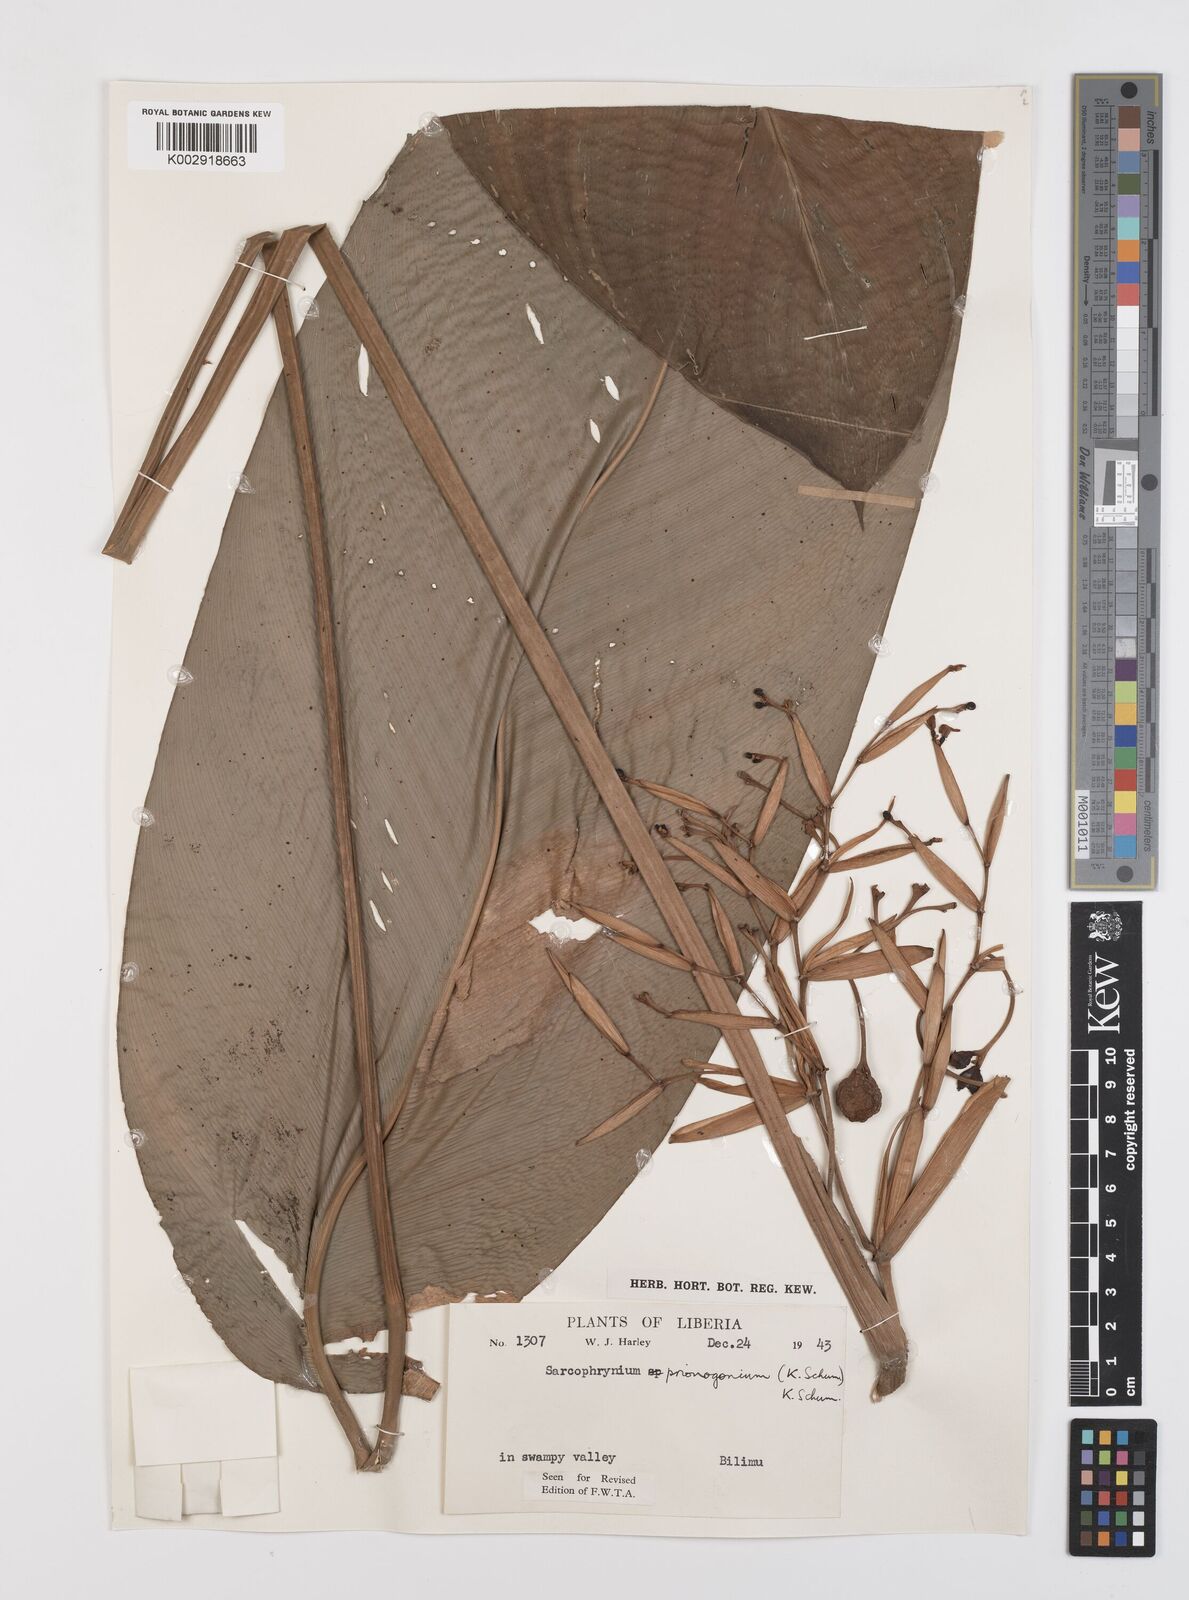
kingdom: Plantae
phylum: Tracheophyta
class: Liliopsida
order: Zingiberales
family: Marantaceae
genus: Sarcophrynium
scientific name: Sarcophrynium prionogonium
